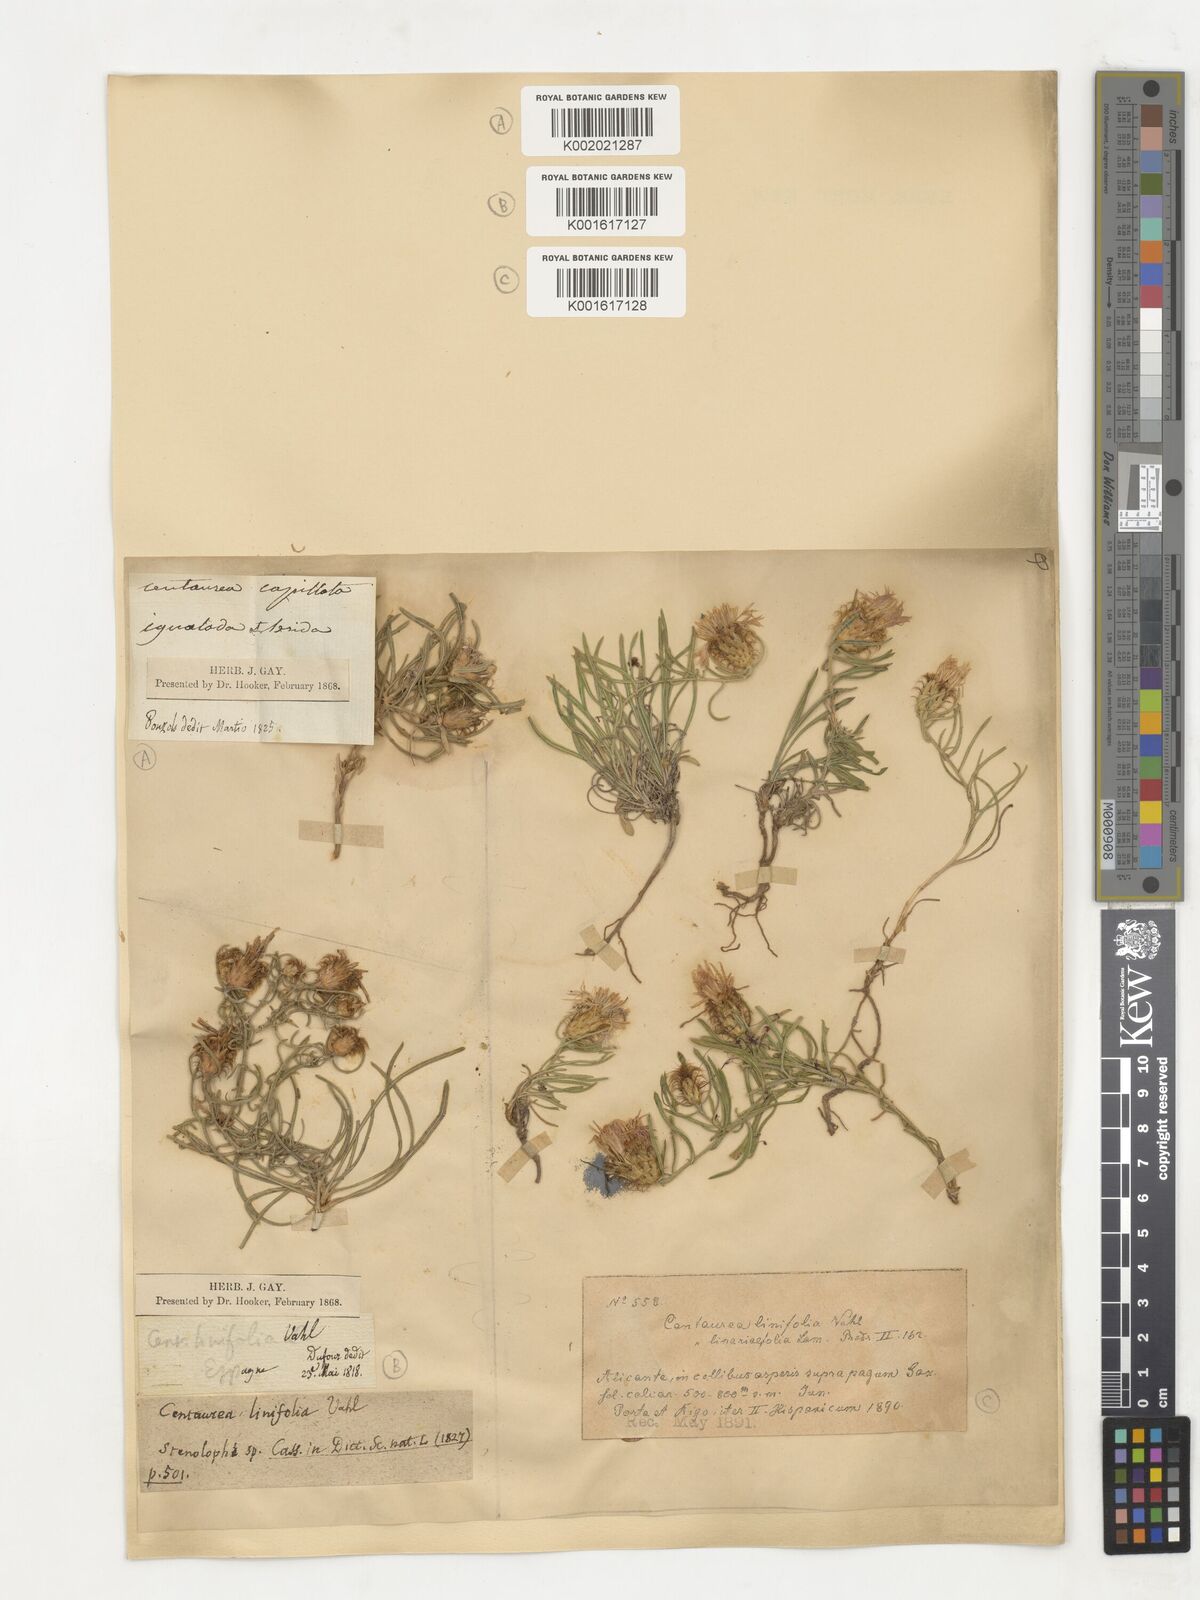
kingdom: Plantae
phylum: Tracheophyta
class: Magnoliopsida
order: Asterales
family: Asteraceae
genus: Centaurea
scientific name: Centaurea linifolia
